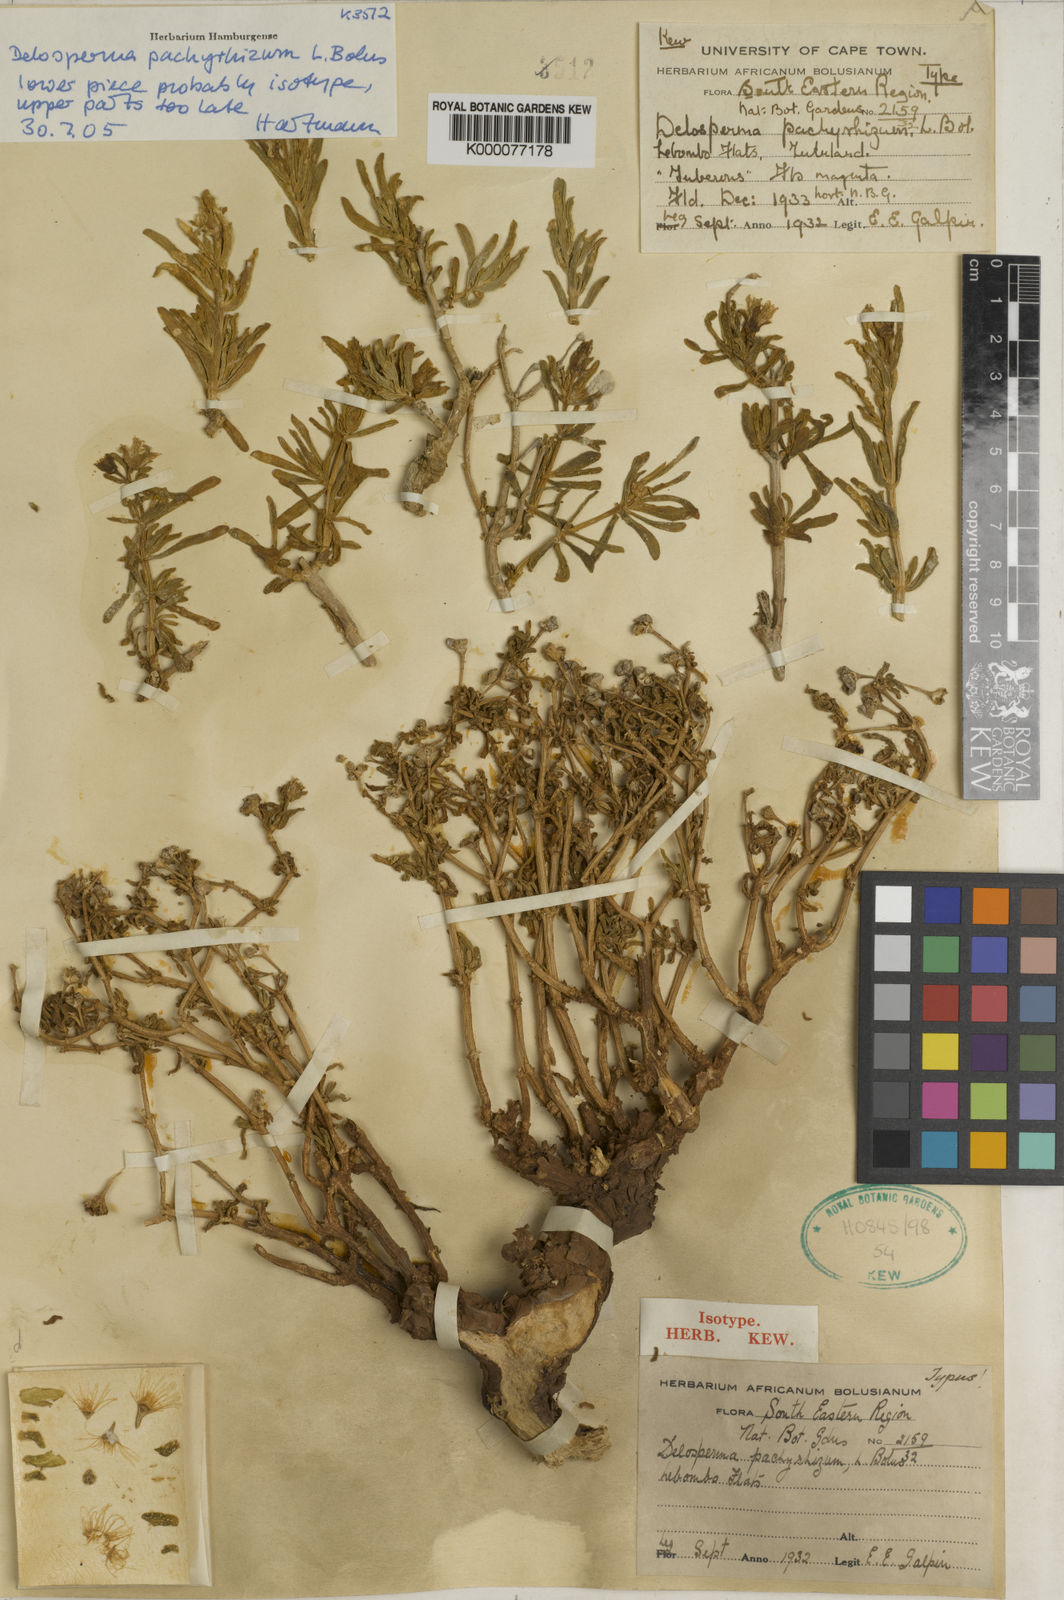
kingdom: Plantae
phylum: Tracheophyta
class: Magnoliopsida
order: Caryophyllales
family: Aizoaceae
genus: Delosperma
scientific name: Delosperma pachyrhizum
